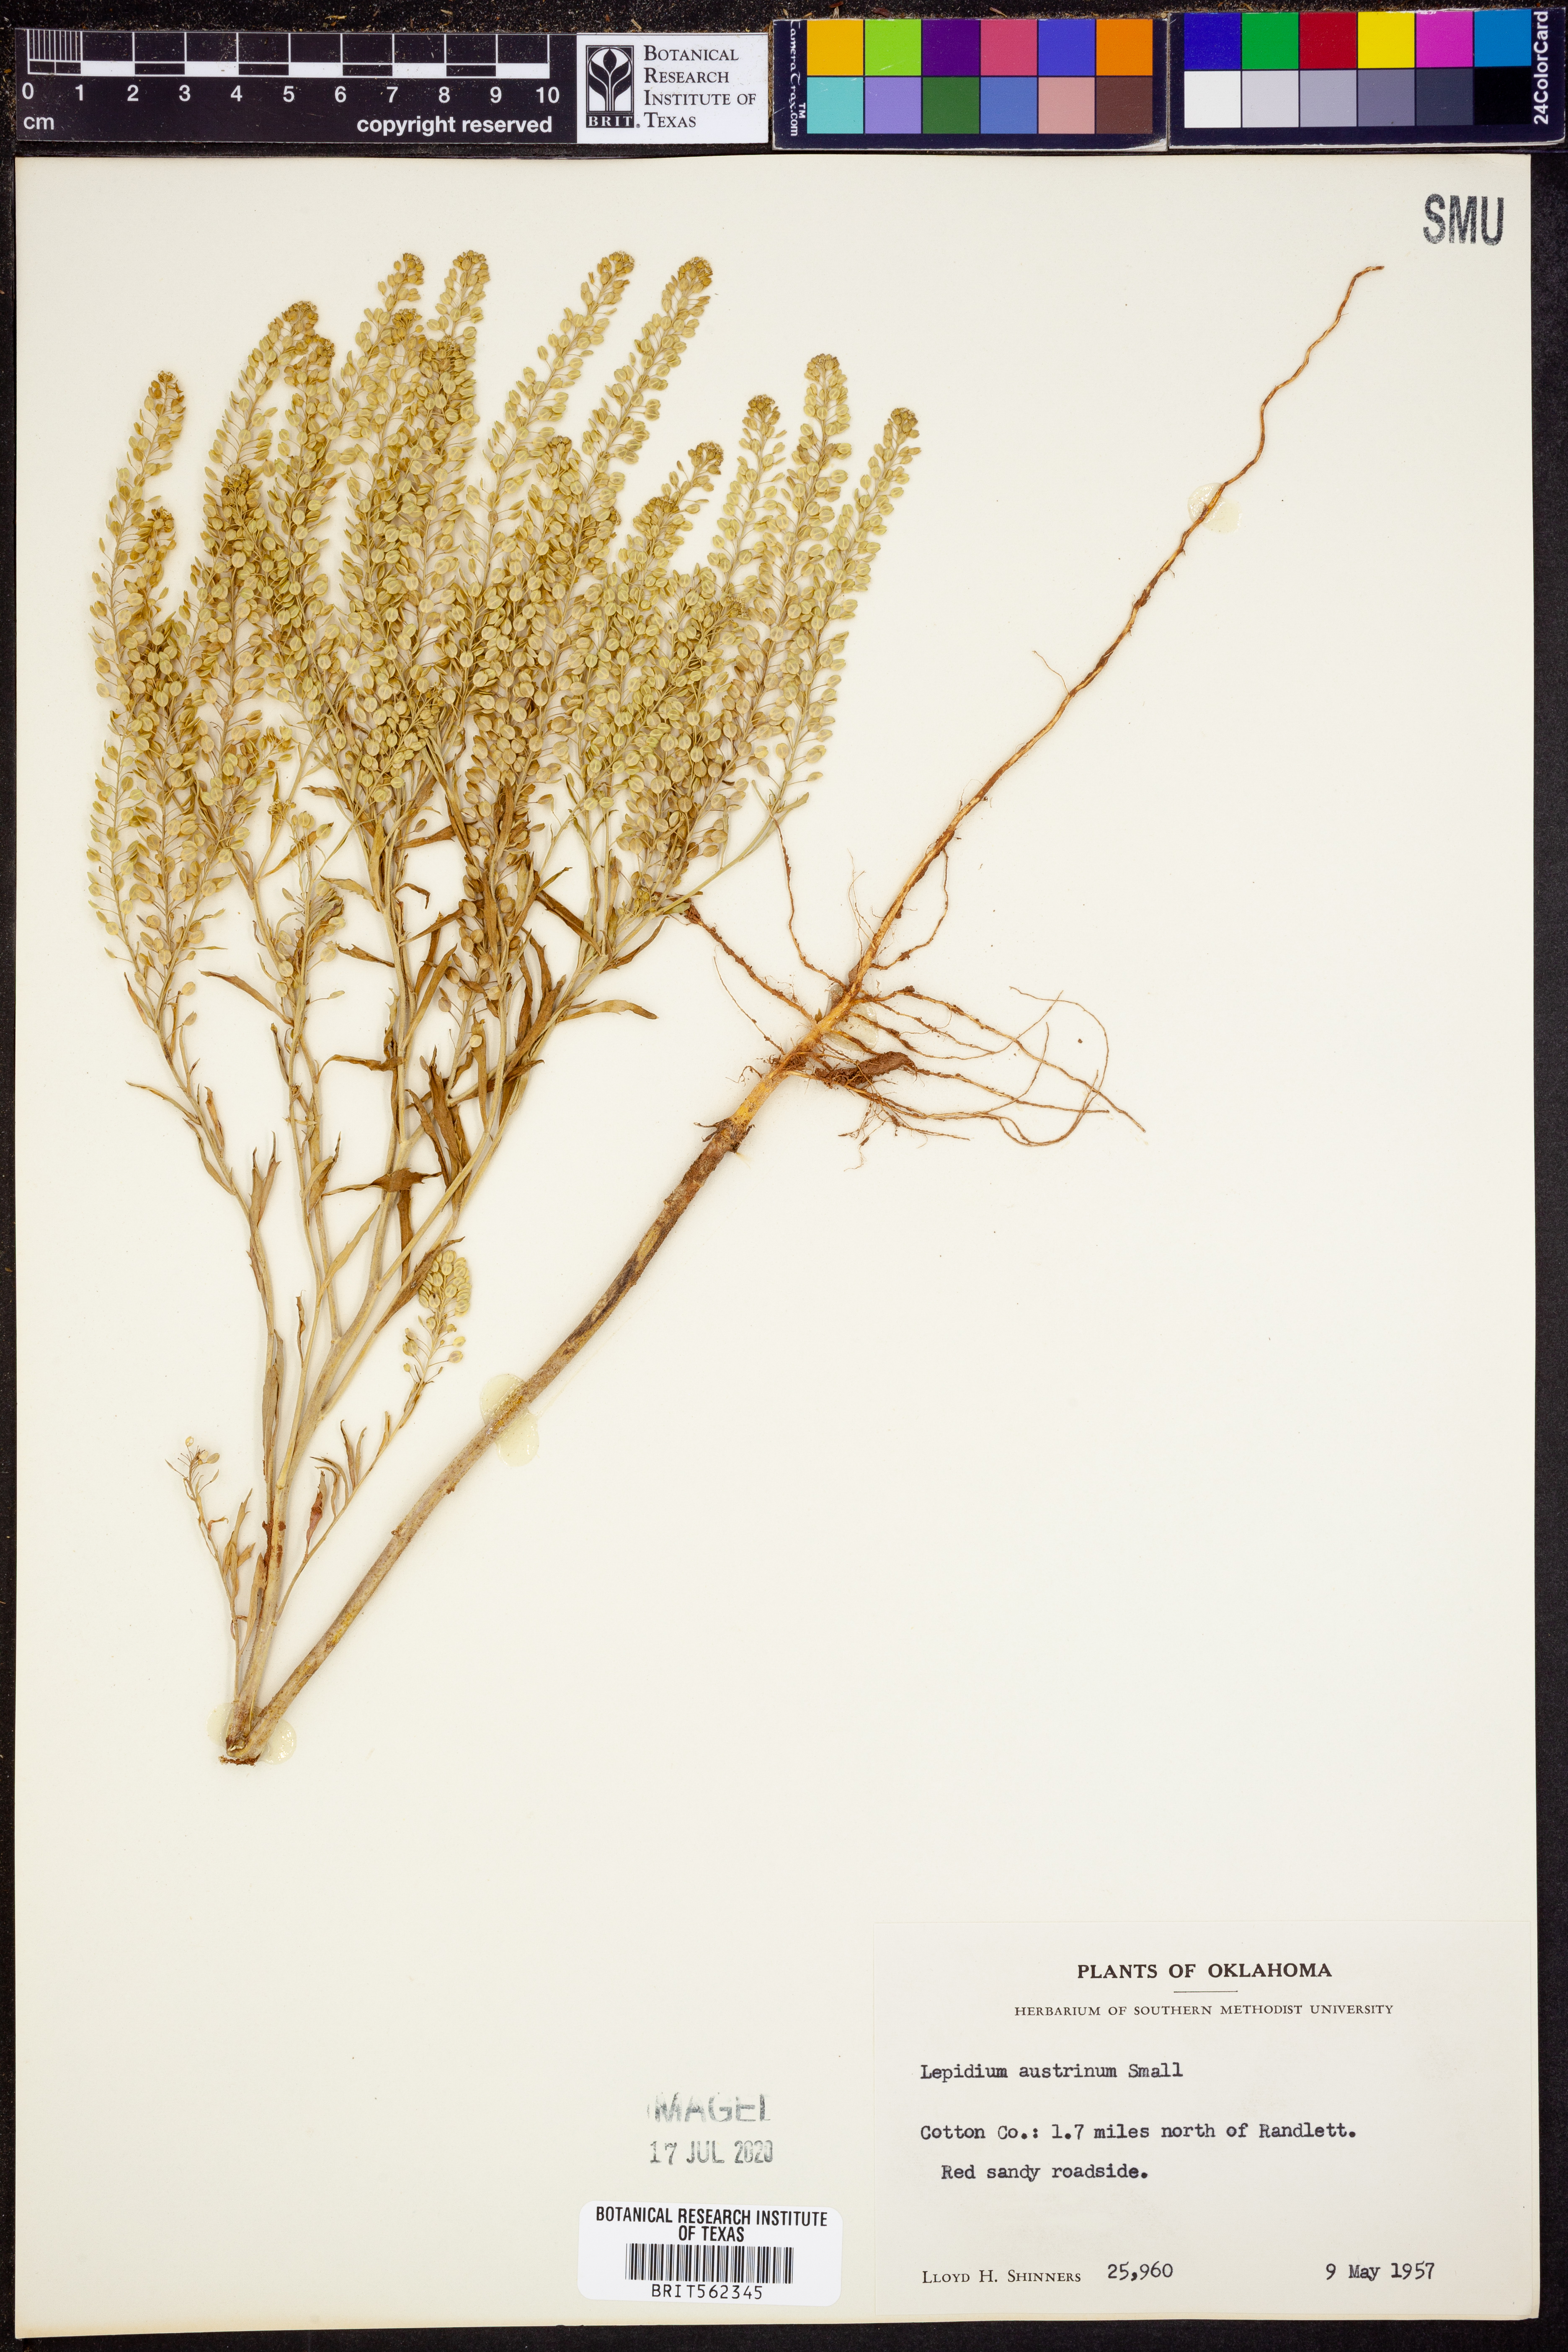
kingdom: Plantae
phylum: Tracheophyta
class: Magnoliopsida
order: Brassicales
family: Brassicaceae
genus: Lepidium
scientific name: Lepidium austrinum
